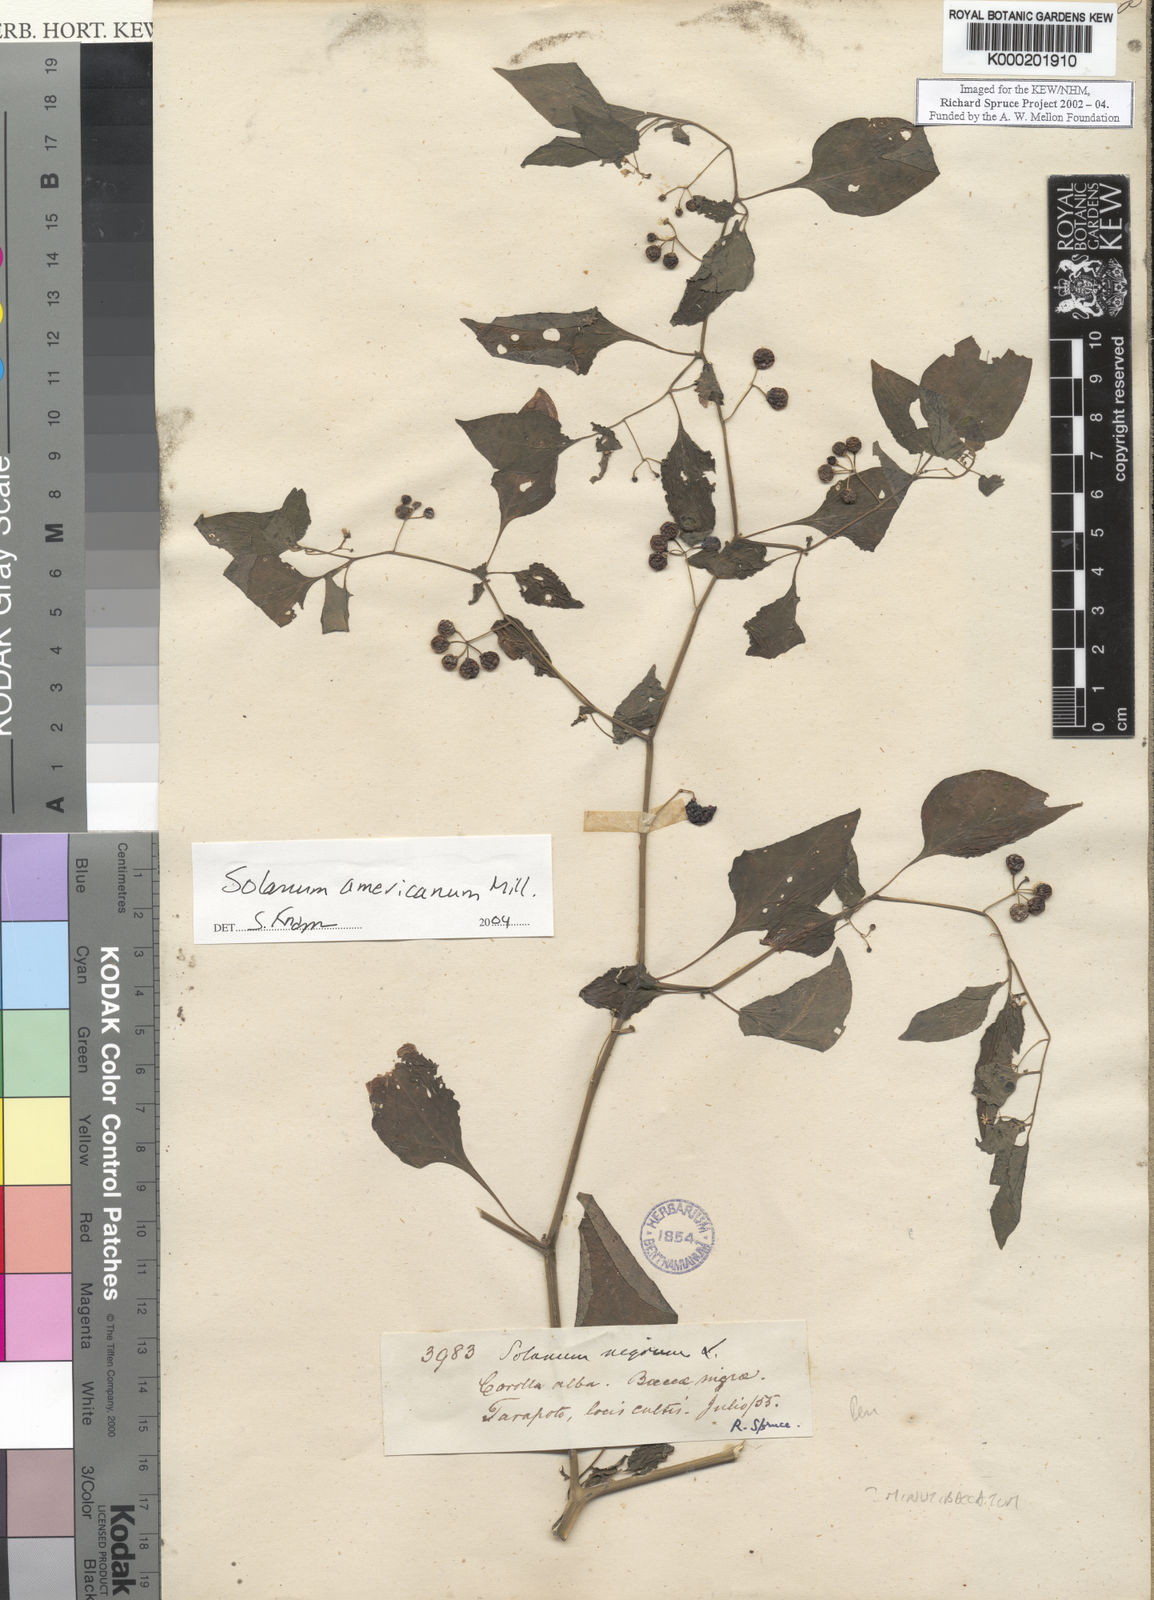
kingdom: Plantae
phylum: Tracheophyta
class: Magnoliopsida
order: Solanales
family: Solanaceae
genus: Solanum
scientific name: Solanum americanum
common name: American black nightshade
